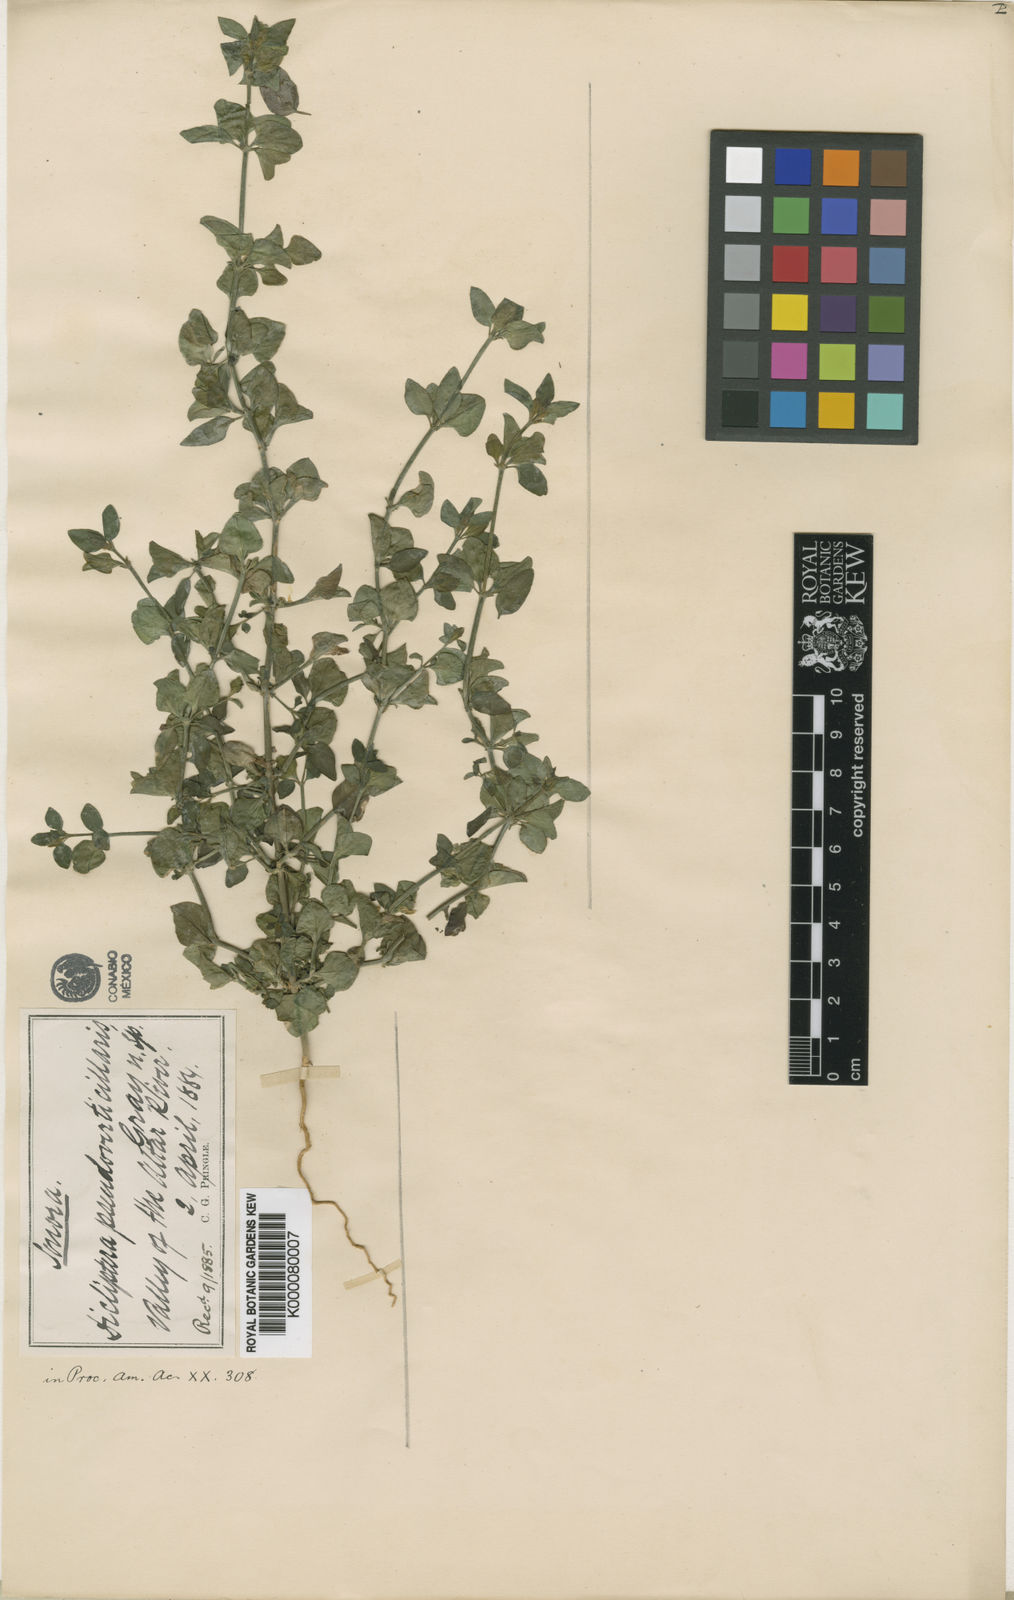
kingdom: Plantae
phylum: Tracheophyta
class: Magnoliopsida
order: Lamiales
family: Acanthaceae
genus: Dicliptera
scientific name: Dicliptera resupinata
